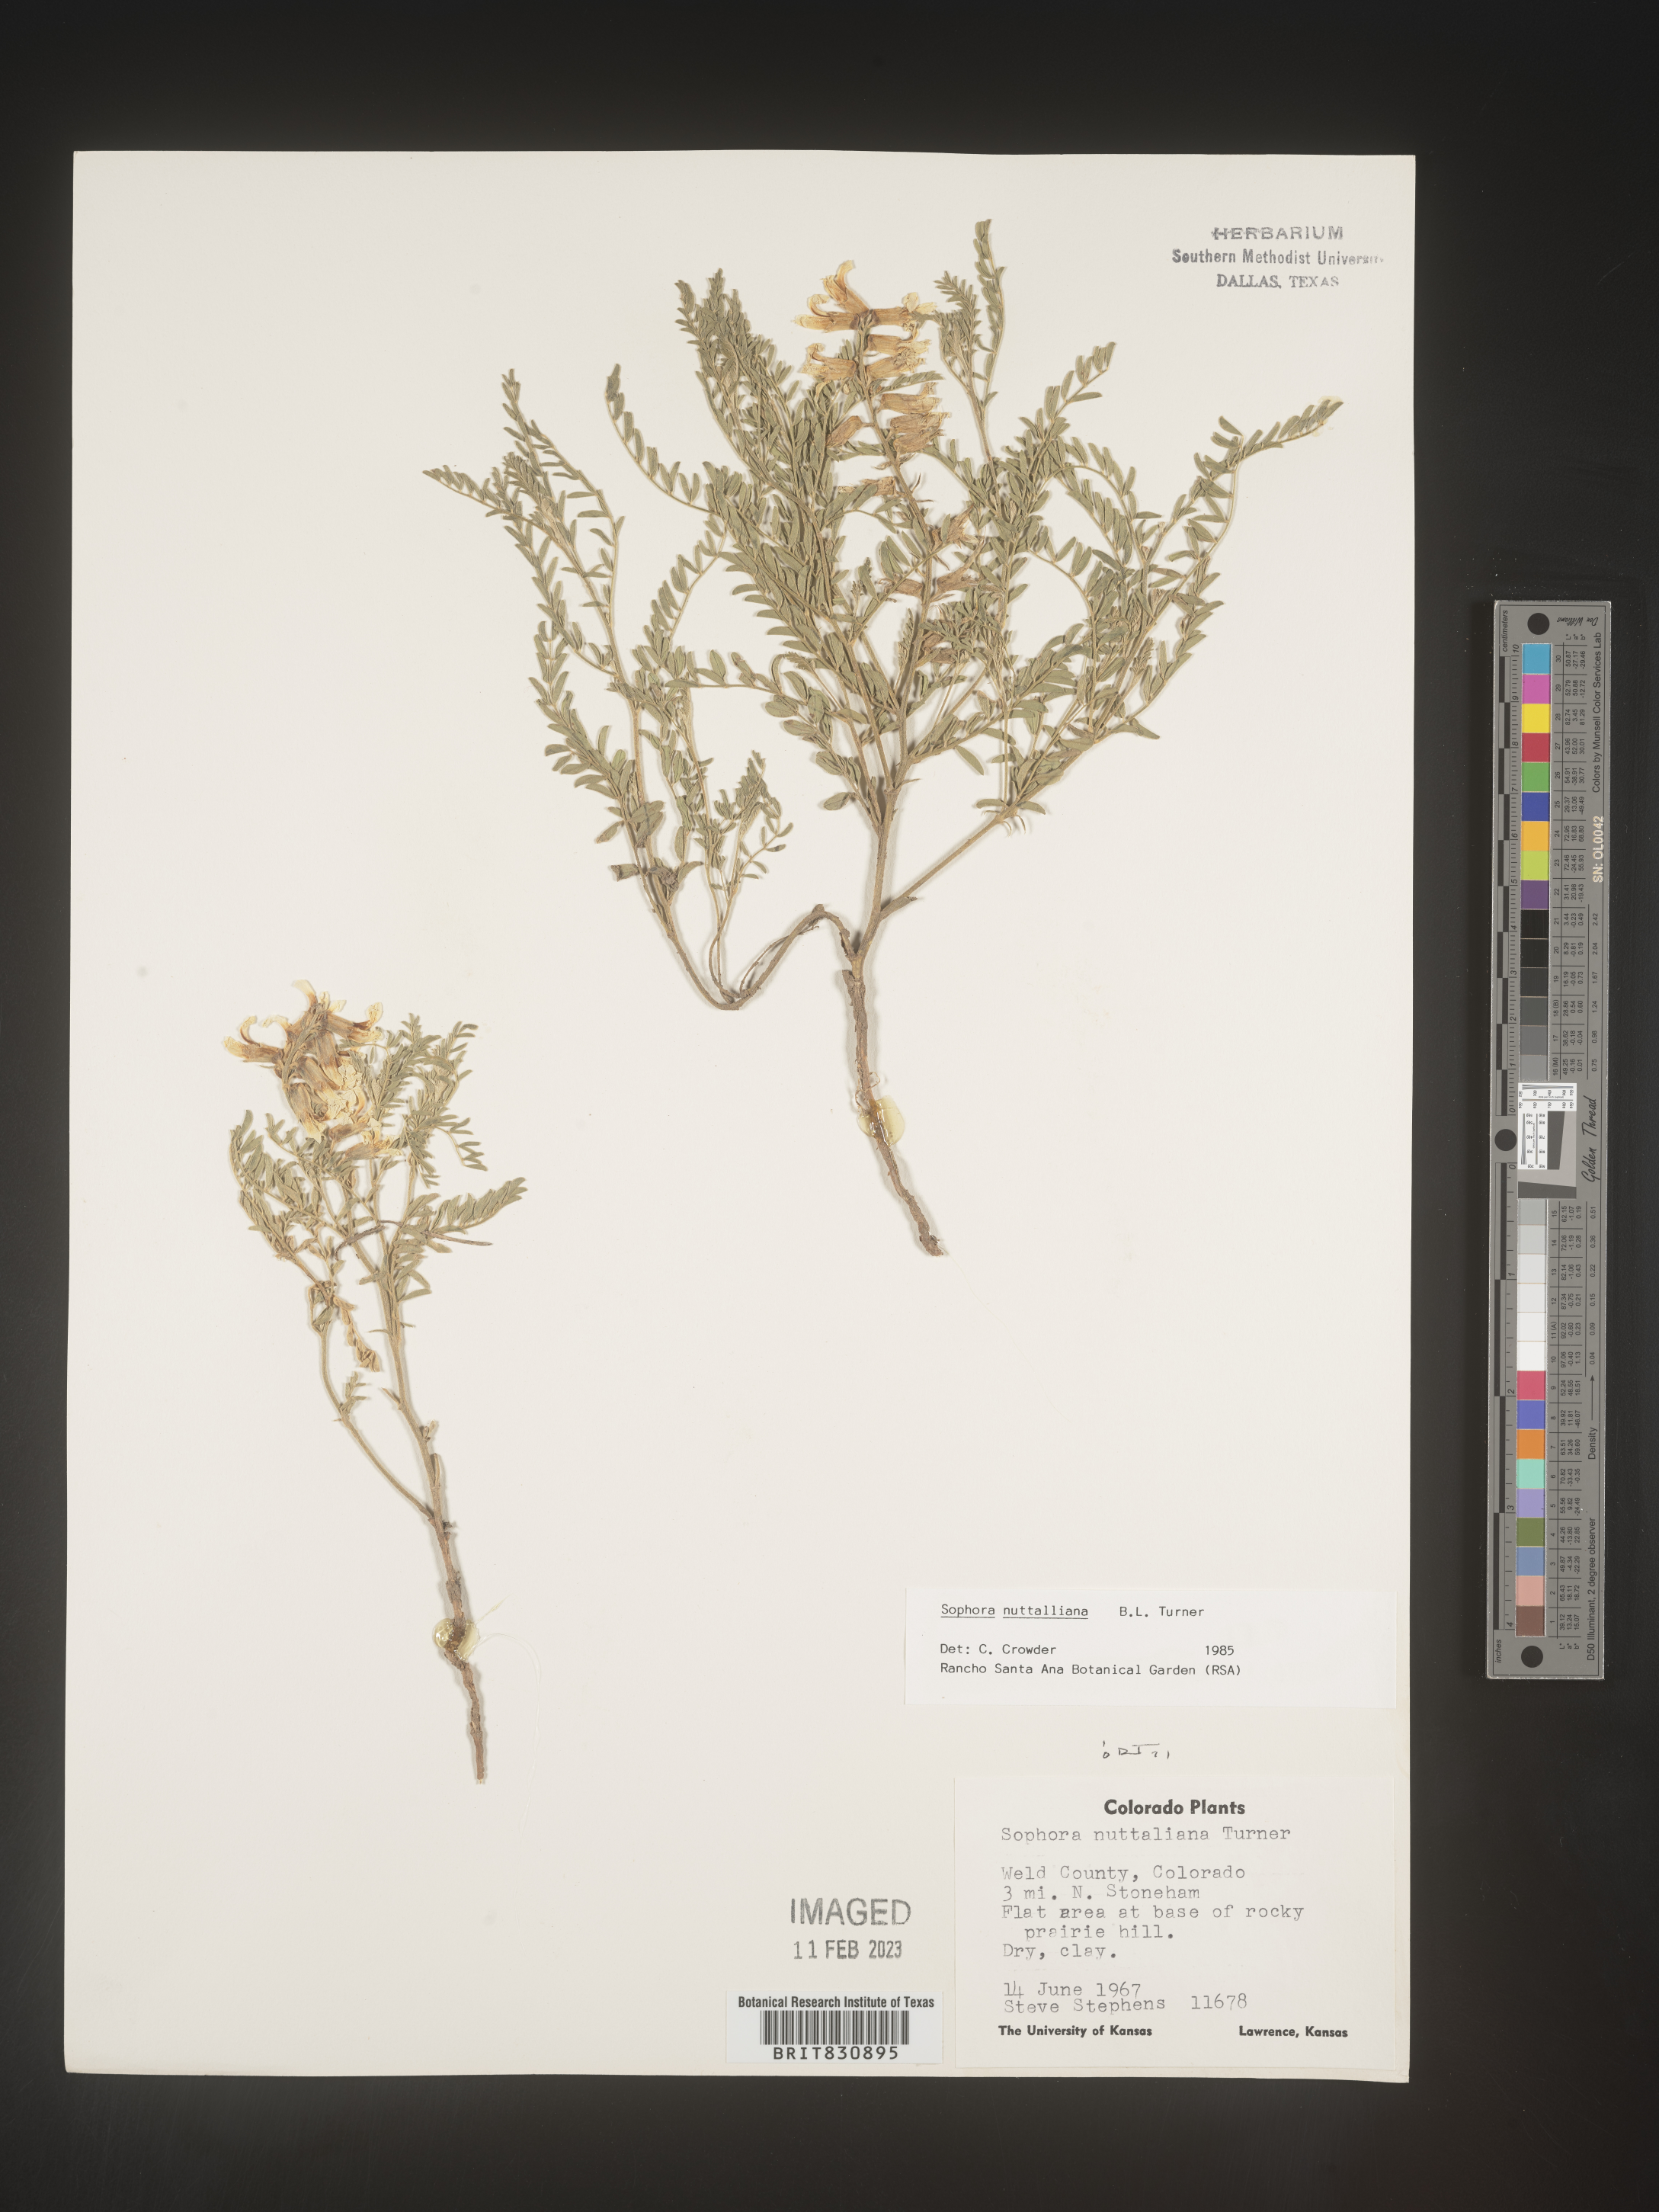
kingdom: Plantae
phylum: Tracheophyta
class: Magnoliopsida
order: Fabales
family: Fabaceae
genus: Sophora
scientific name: Sophora nuttalliana
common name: Silky sophora
